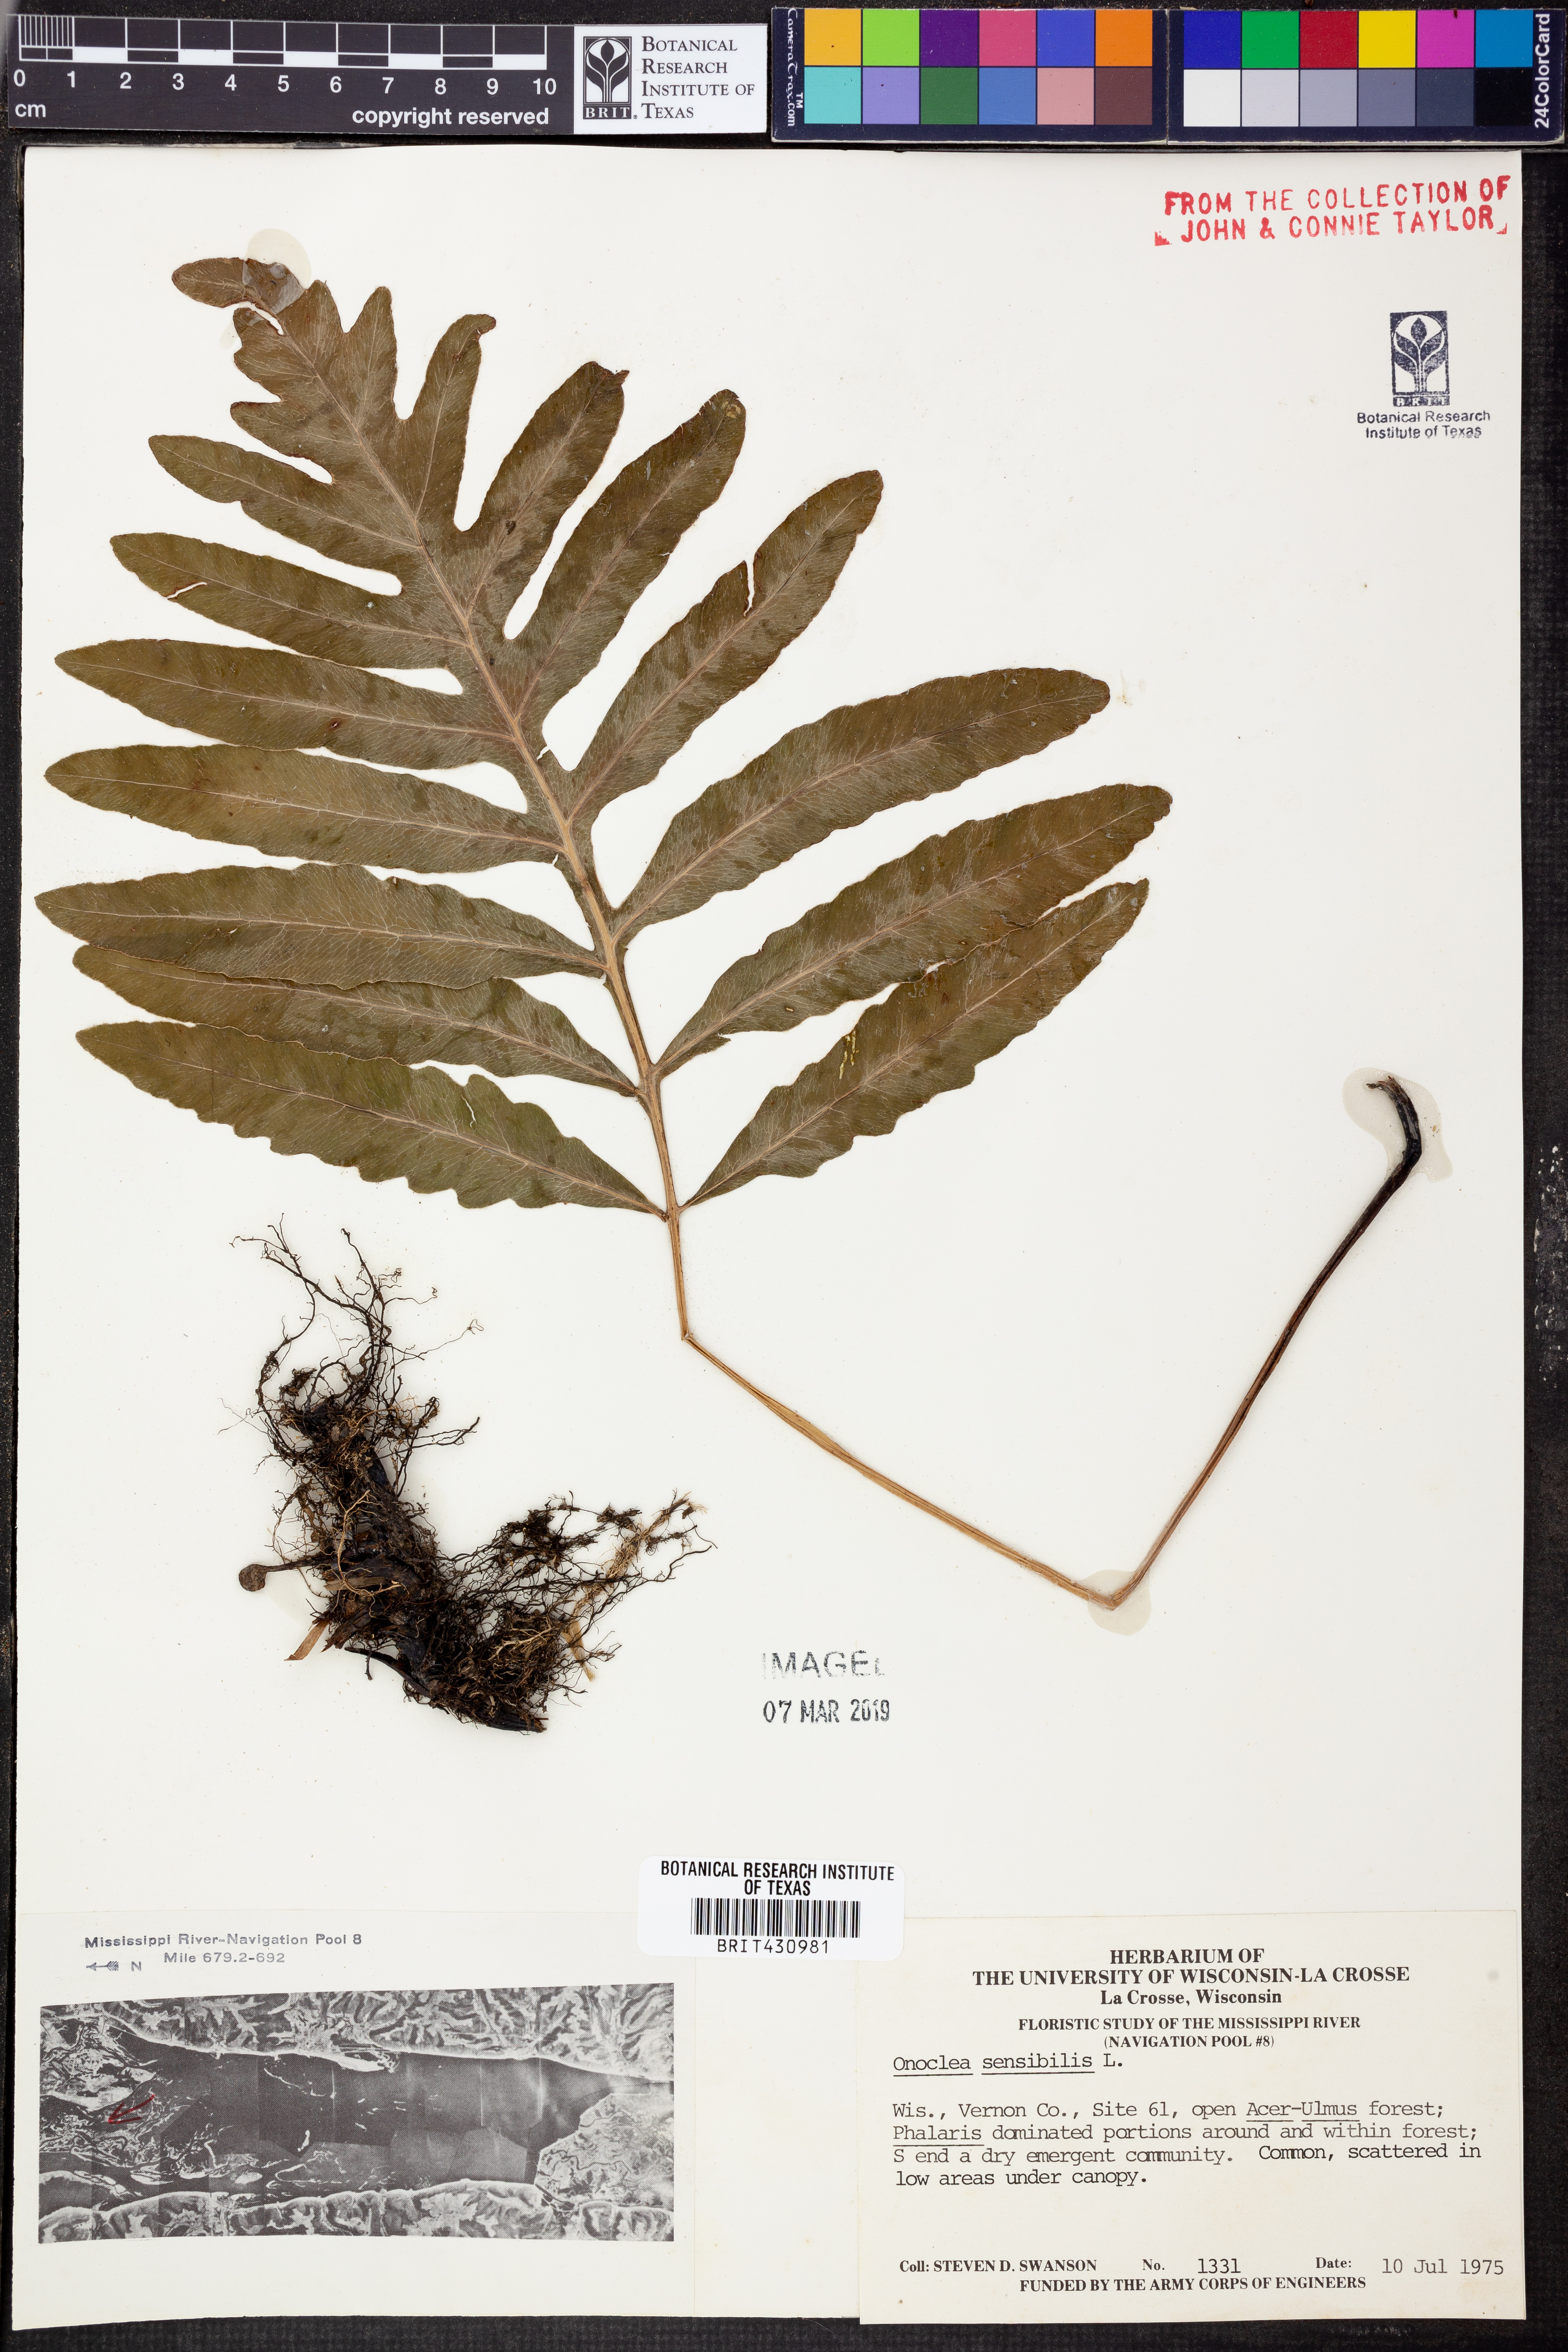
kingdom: Plantae
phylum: Tracheophyta
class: Polypodiopsida
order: Polypodiales
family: Onocleaceae
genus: Onoclea
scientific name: Onoclea sensibilis
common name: Sensitive fern
